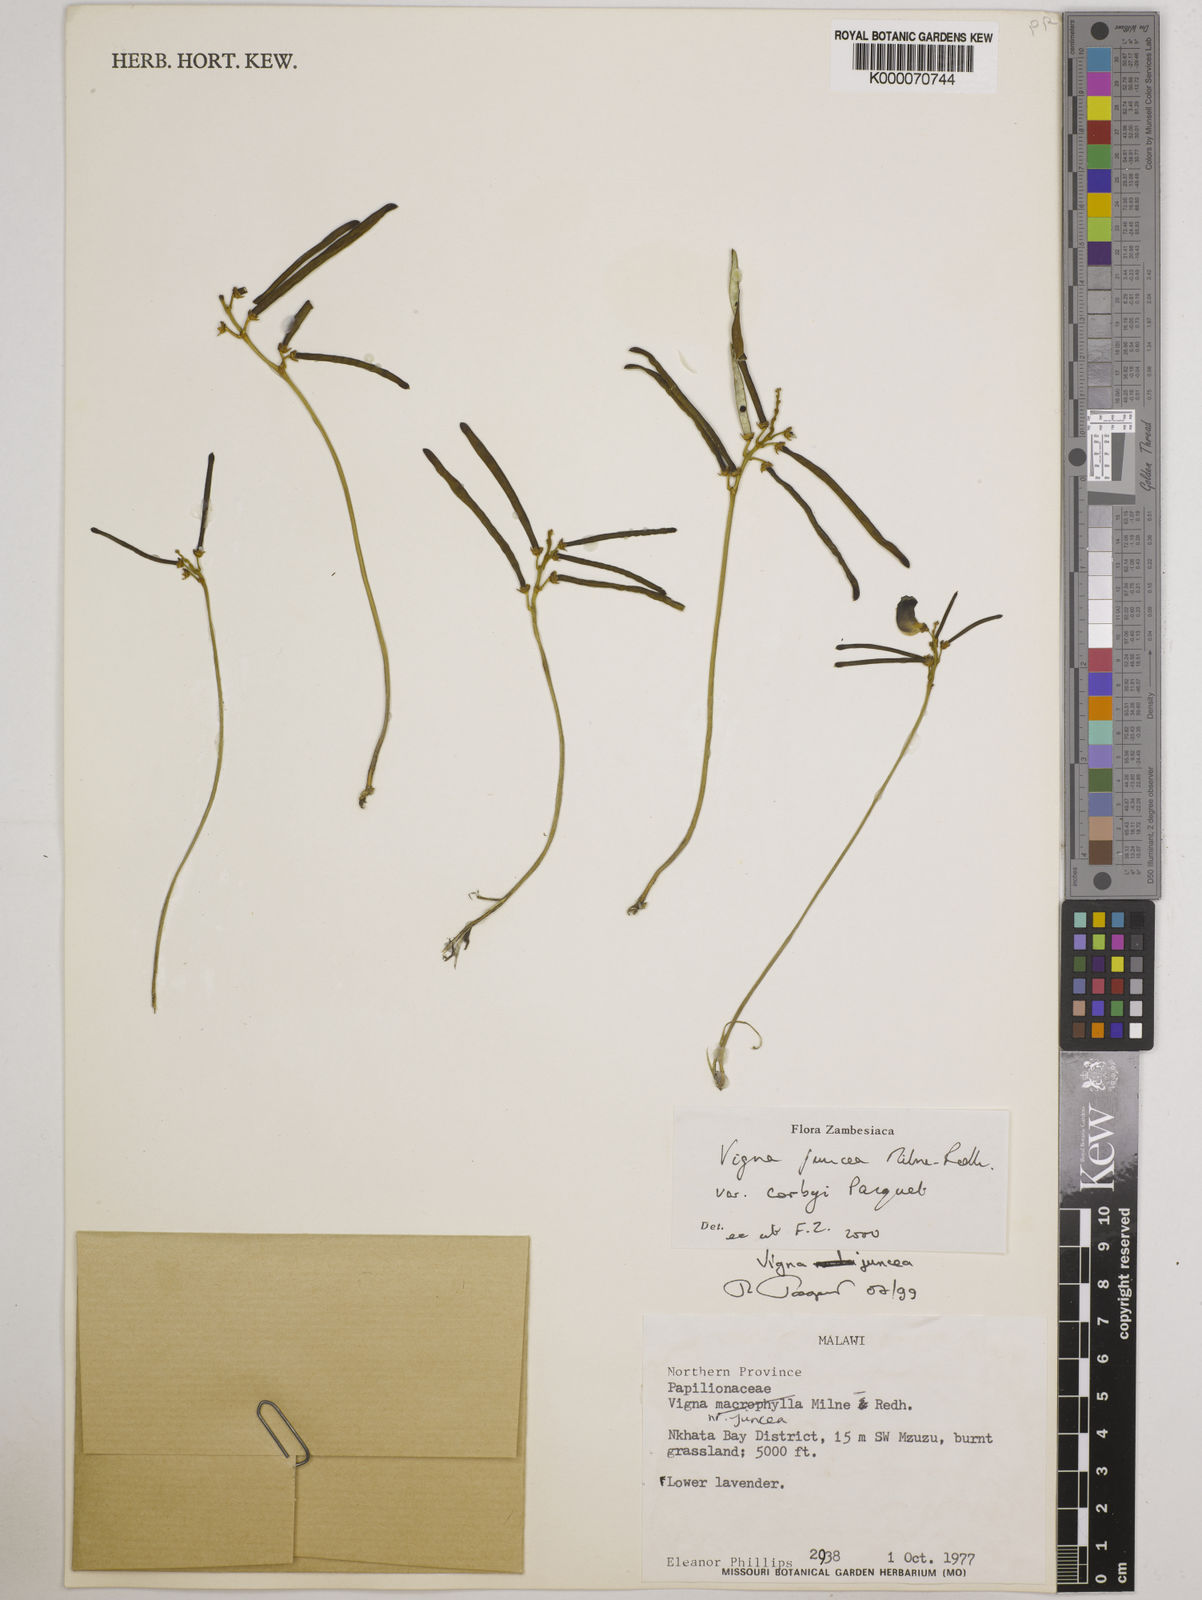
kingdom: Plantae
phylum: Tracheophyta
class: Magnoliopsida
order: Fabales
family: Fabaceae
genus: Vigna
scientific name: Vigna juncea
